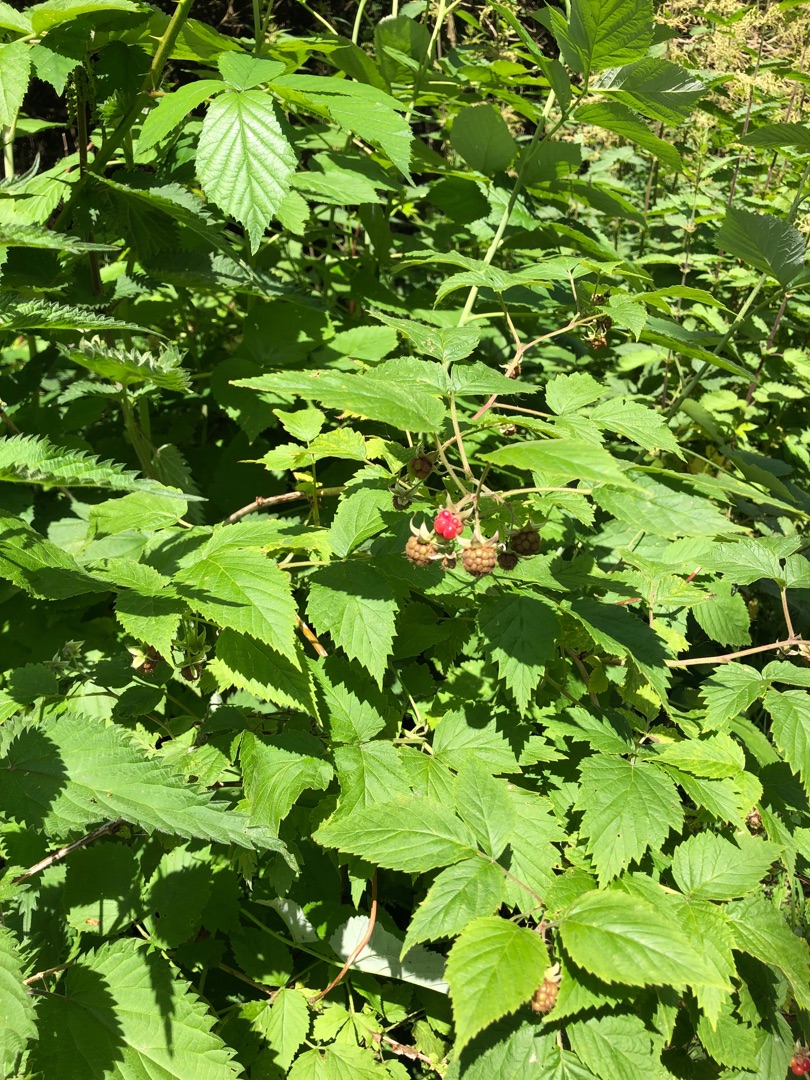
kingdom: Plantae
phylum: Tracheophyta
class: Magnoliopsida
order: Rosales
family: Rosaceae
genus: Rubus
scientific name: Rubus idaeus
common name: Hindbær
